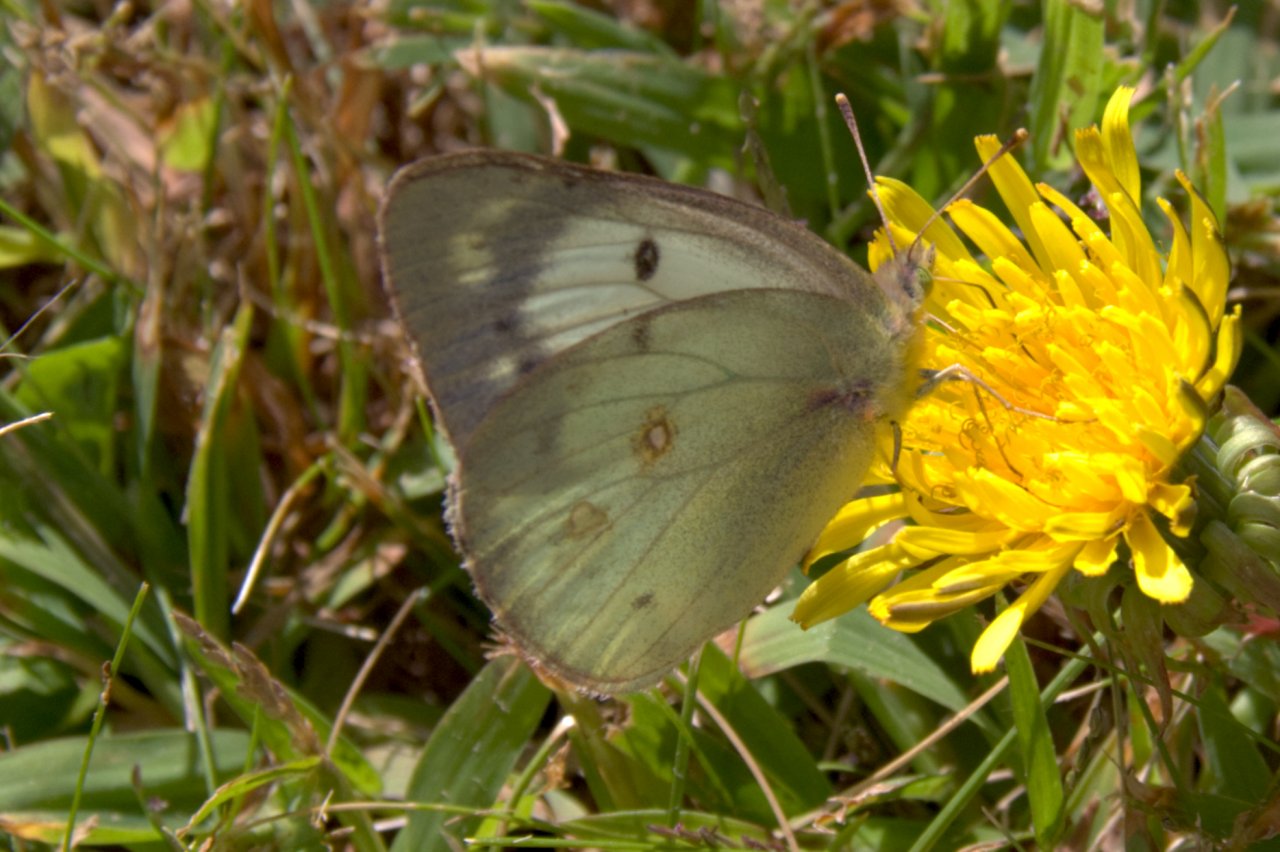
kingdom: Animalia
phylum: Arthropoda
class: Insecta
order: Lepidoptera
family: Pieridae
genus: Colias
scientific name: Colias philodice
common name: Clouded Sulphur
